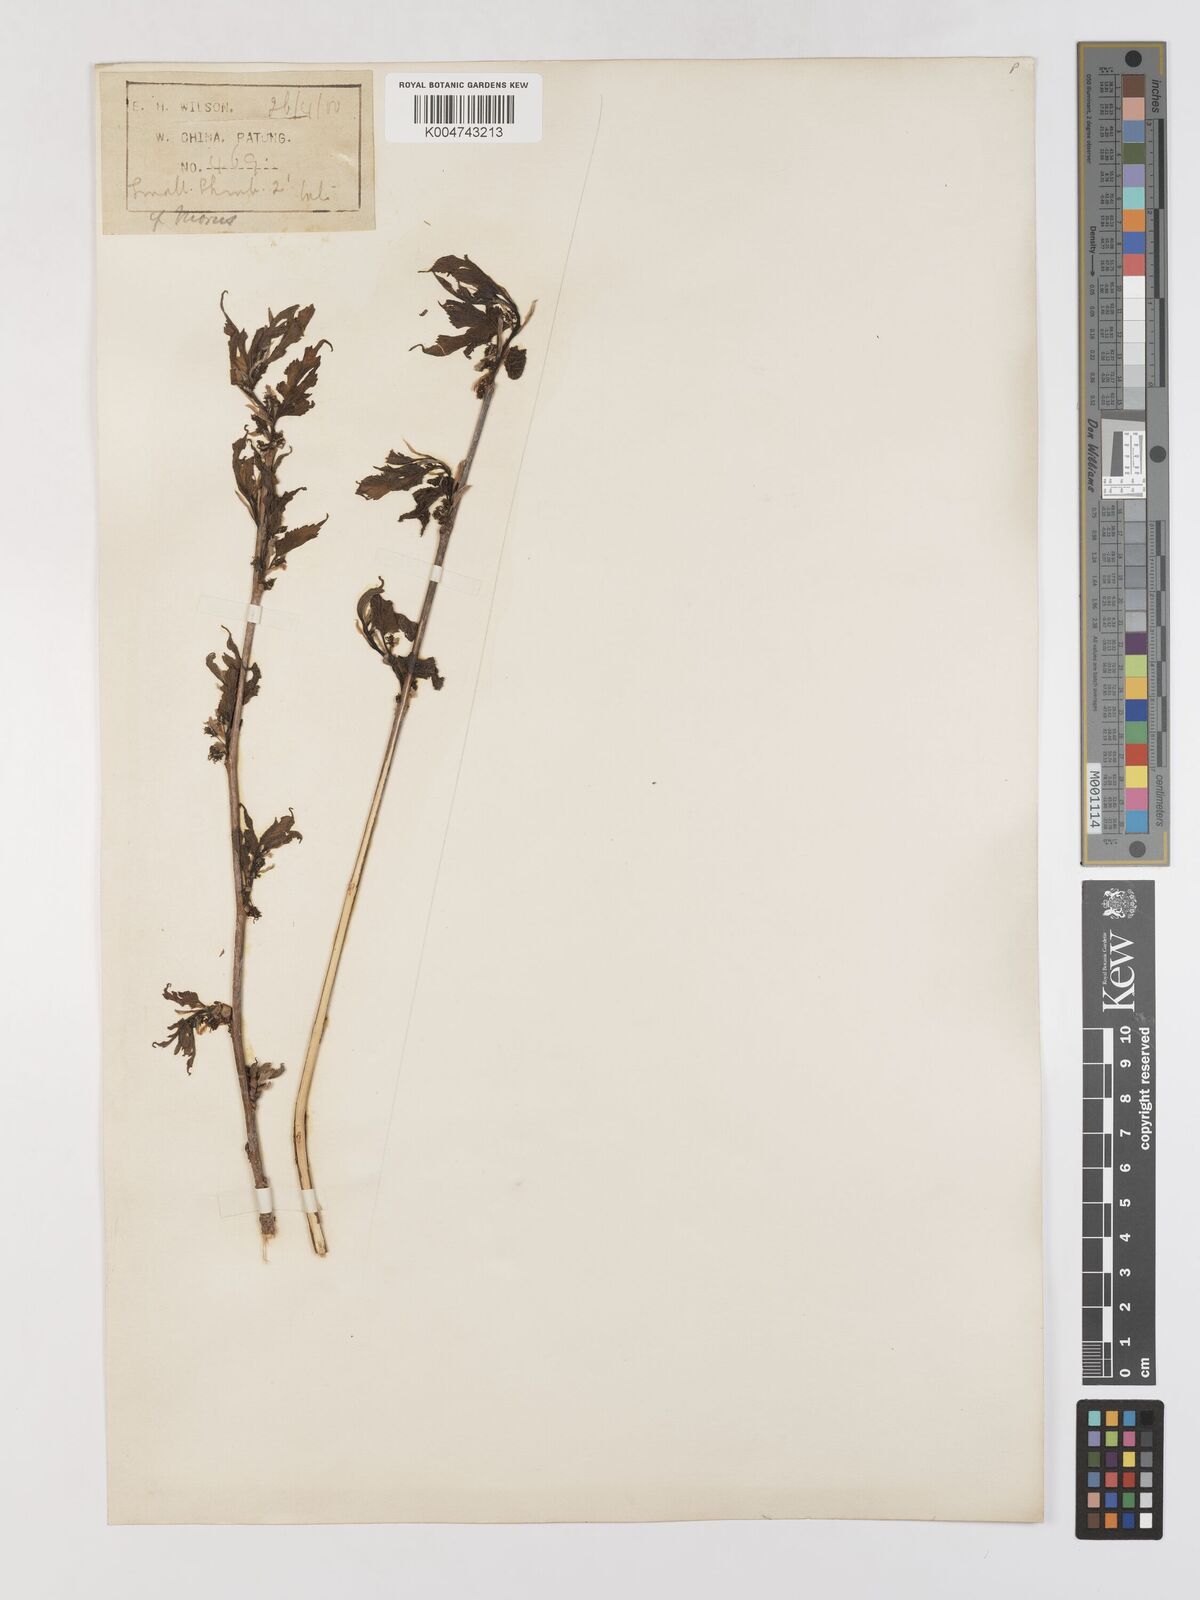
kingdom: Plantae
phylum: Tracheophyta
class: Magnoliopsida
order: Rosales
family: Moraceae
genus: Morus
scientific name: Morus indica
